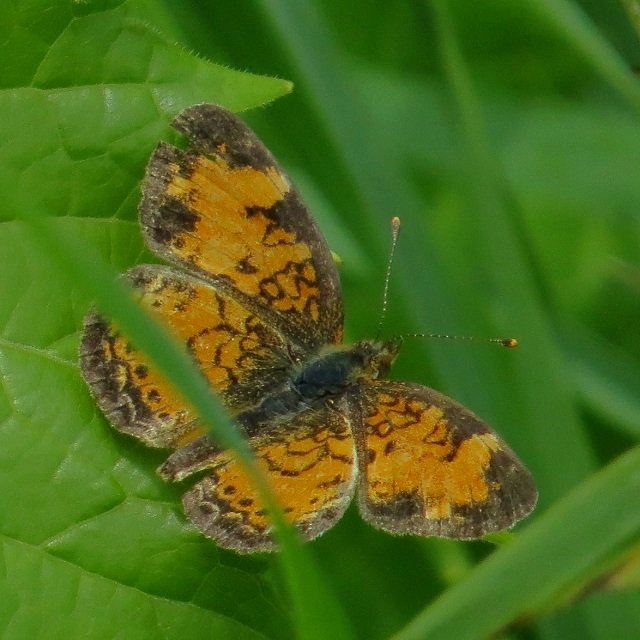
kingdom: Animalia
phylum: Arthropoda
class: Insecta
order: Lepidoptera
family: Nymphalidae
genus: Phyciodes
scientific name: Phyciodes tharos
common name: Northern Crescent
